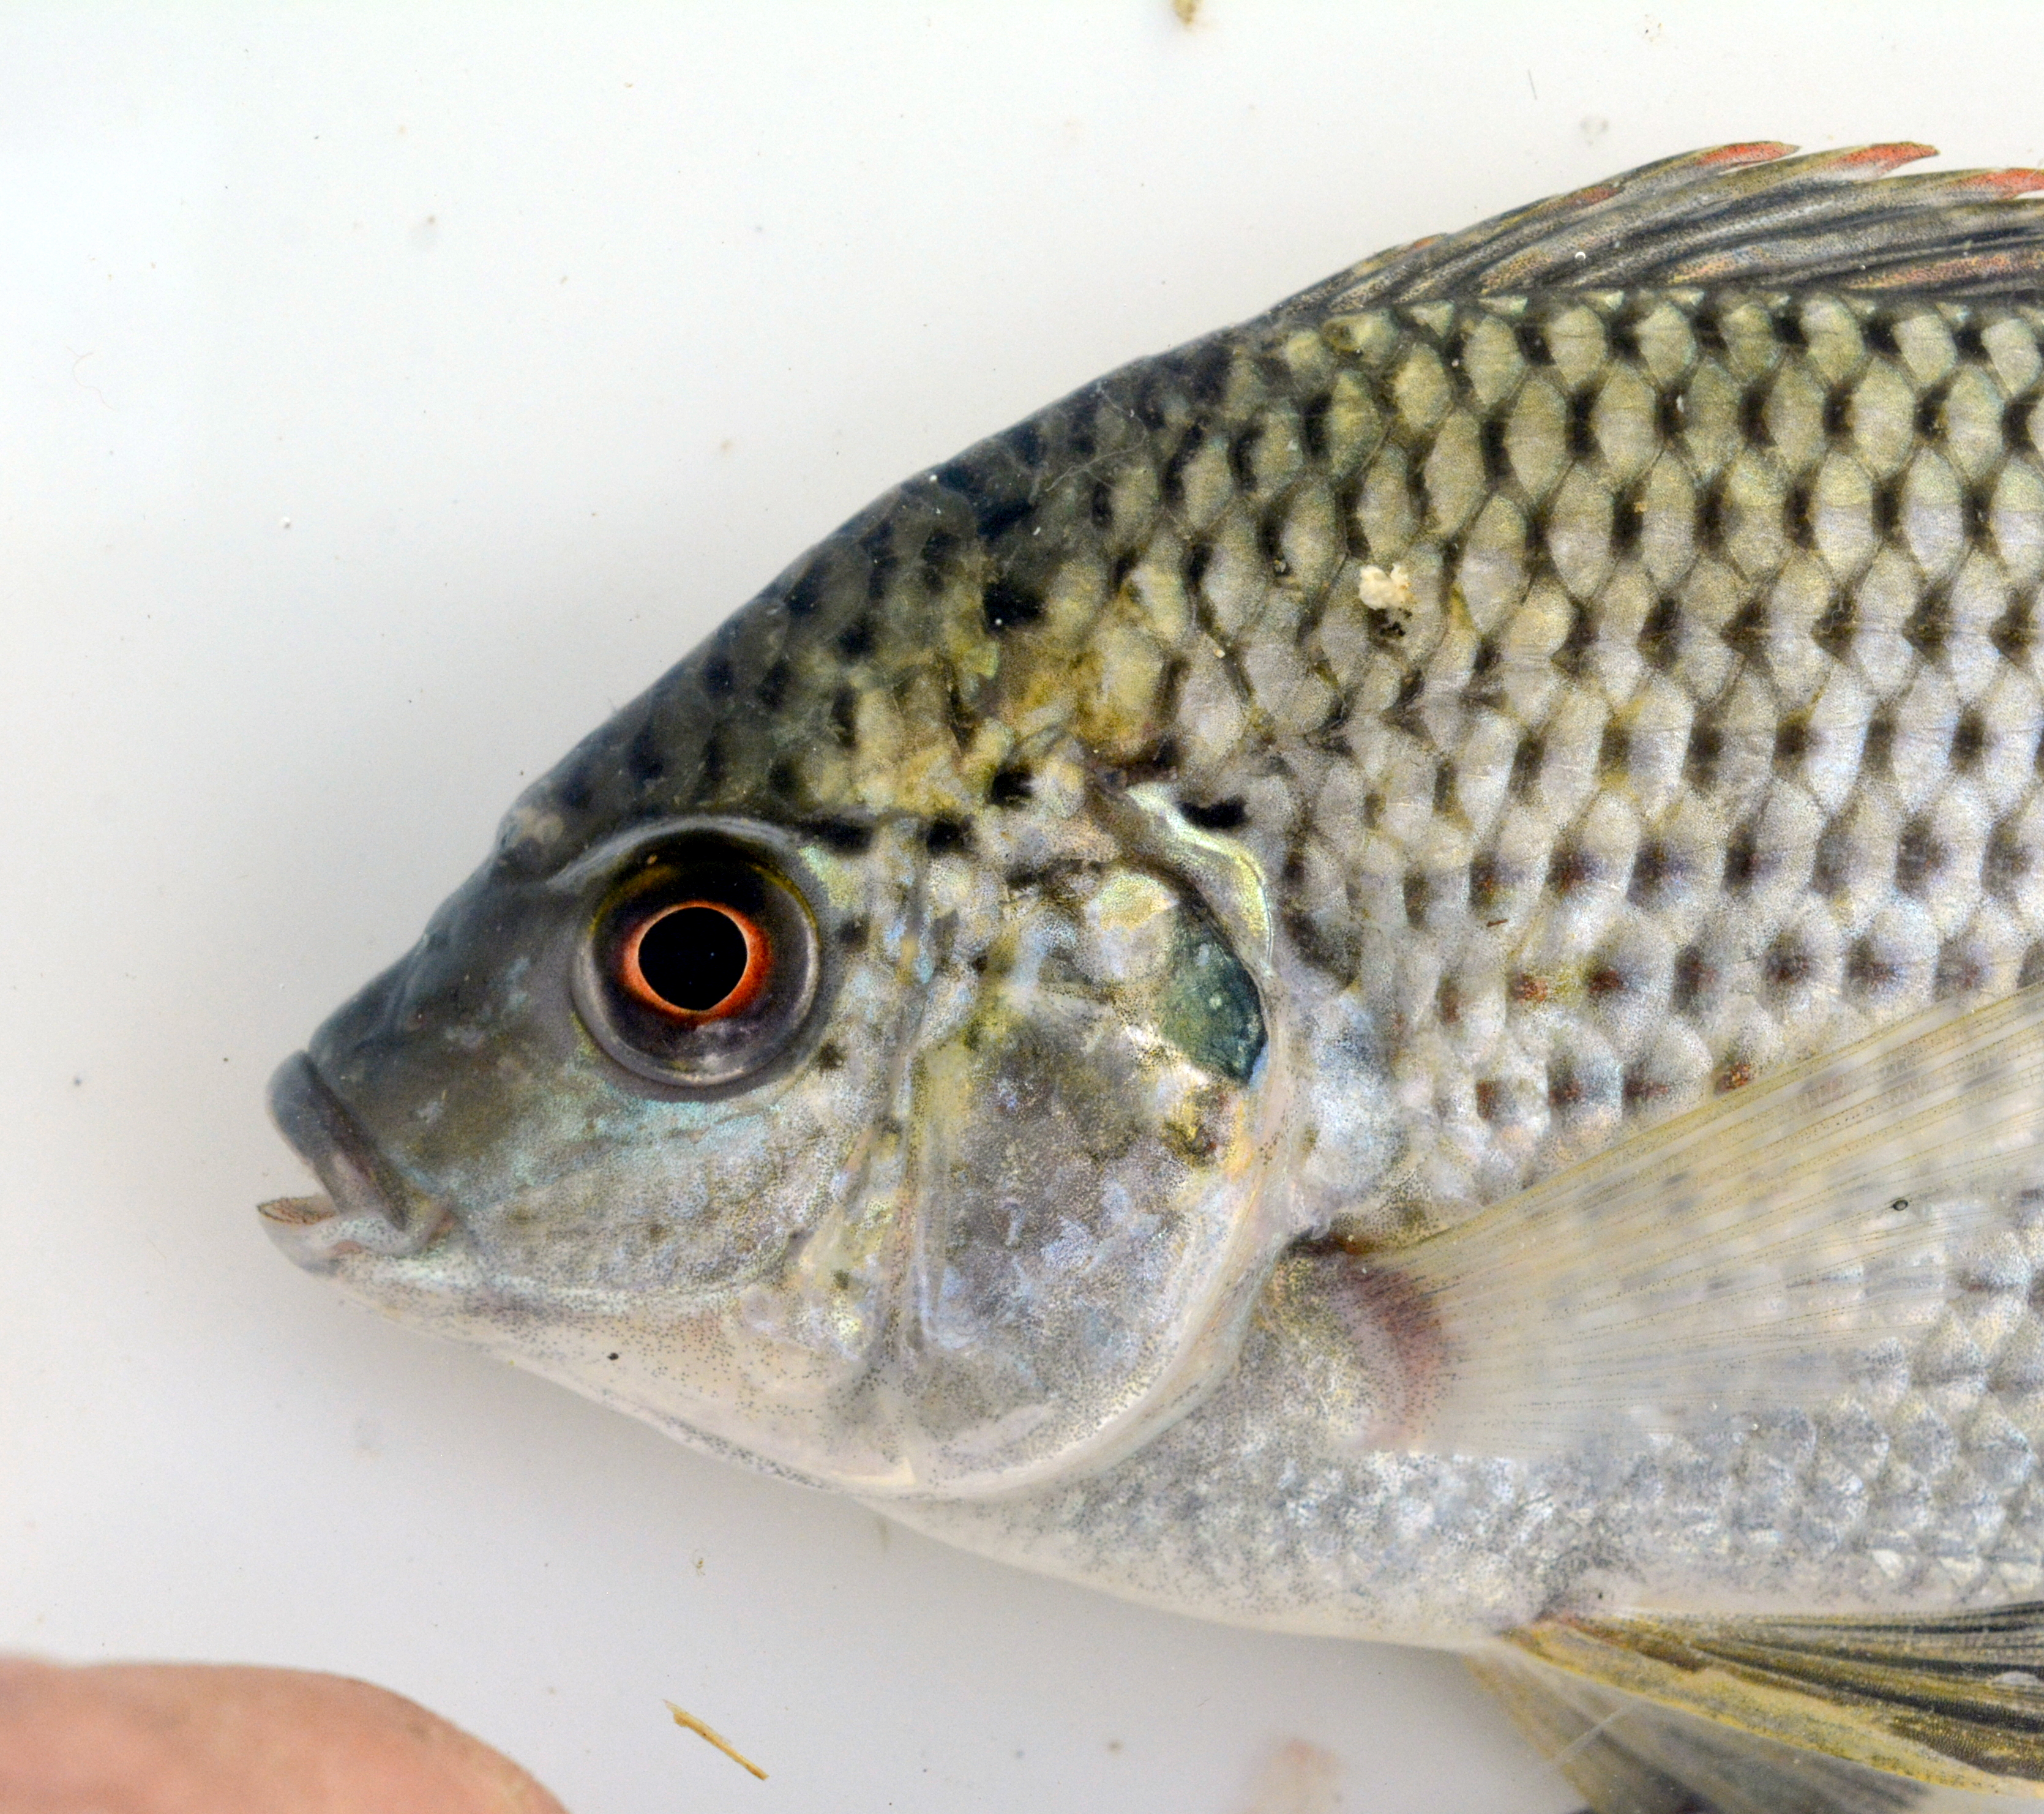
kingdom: Animalia
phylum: Chordata
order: Perciformes
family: Cichlidae
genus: Oreochromis
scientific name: Oreochromis macrochir
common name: Greenhead tilapia
